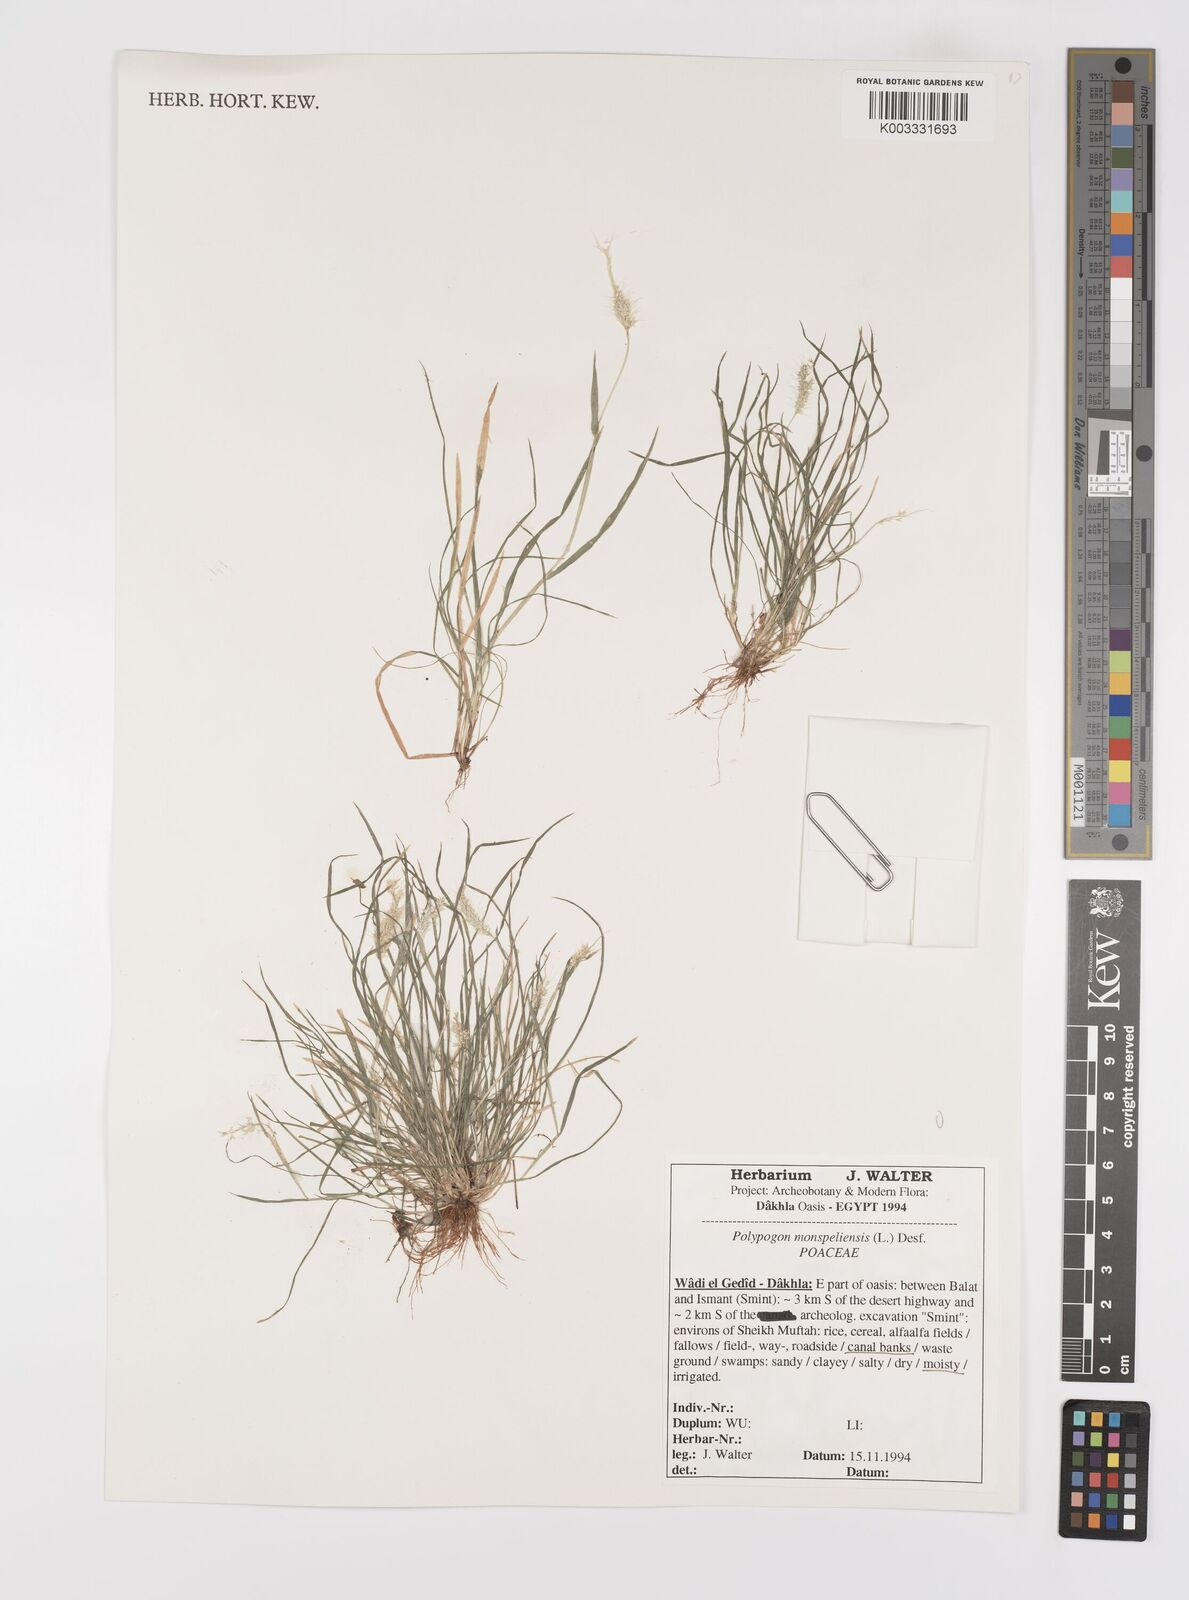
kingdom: Plantae
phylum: Tracheophyta
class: Liliopsida
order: Poales
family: Poaceae
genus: Polypogon
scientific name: Polypogon monspeliensis
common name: Annual rabbitsfoot grass
